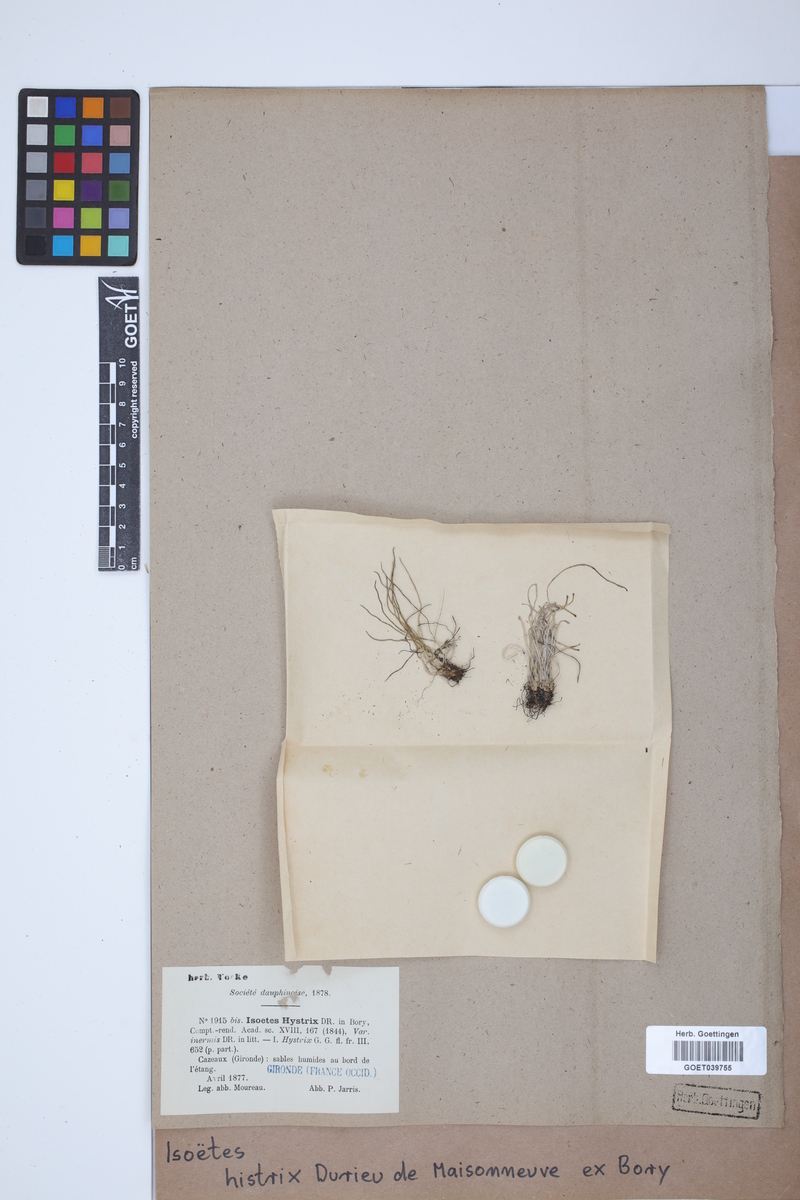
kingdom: Plantae
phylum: Tracheophyta
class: Lycopodiopsida
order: Isoetales
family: Isoetaceae
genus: Isoetes
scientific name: Isoetes histrix
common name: Land quillwort
